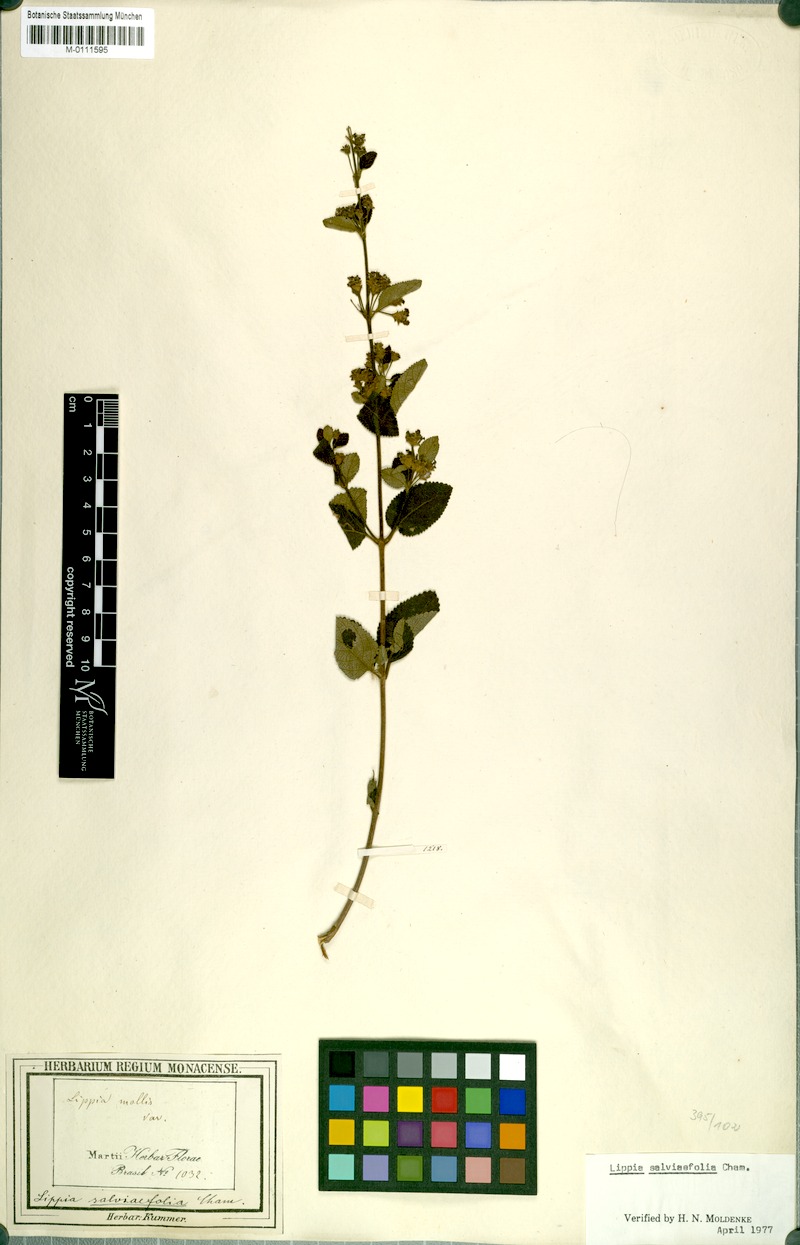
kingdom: Plantae
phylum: Tracheophyta
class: Magnoliopsida
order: Lamiales
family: Verbenaceae
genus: Lippia
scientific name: Lippia origanoides
